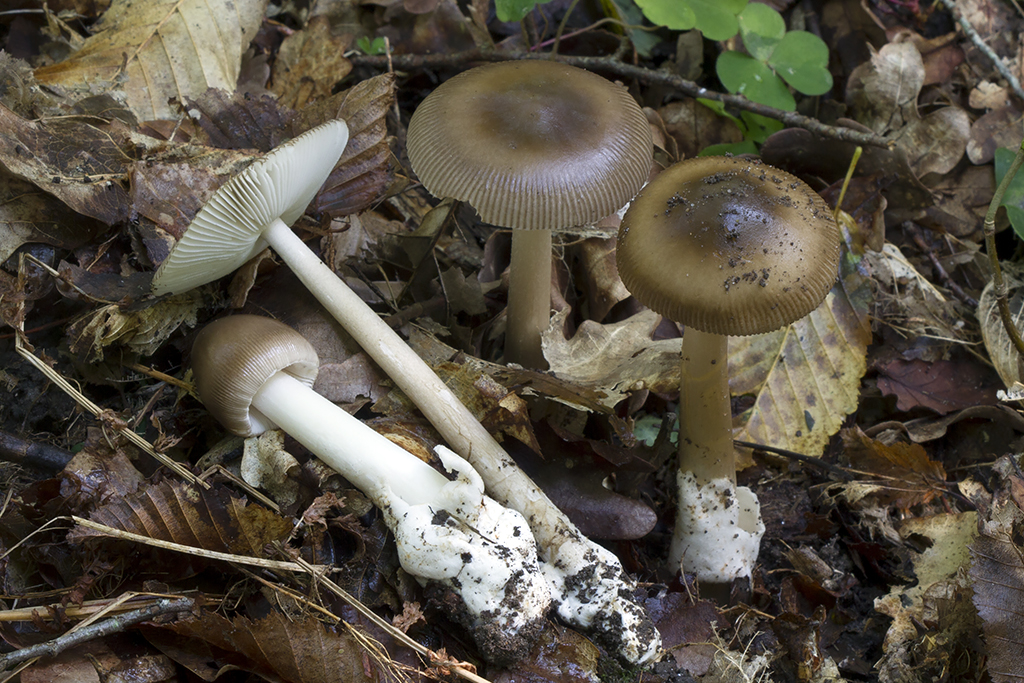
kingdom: Fungi
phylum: Basidiomycota
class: Agaricomycetes
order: Agaricales
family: Amanitaceae
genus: Amanita
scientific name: Amanita fulvoides
